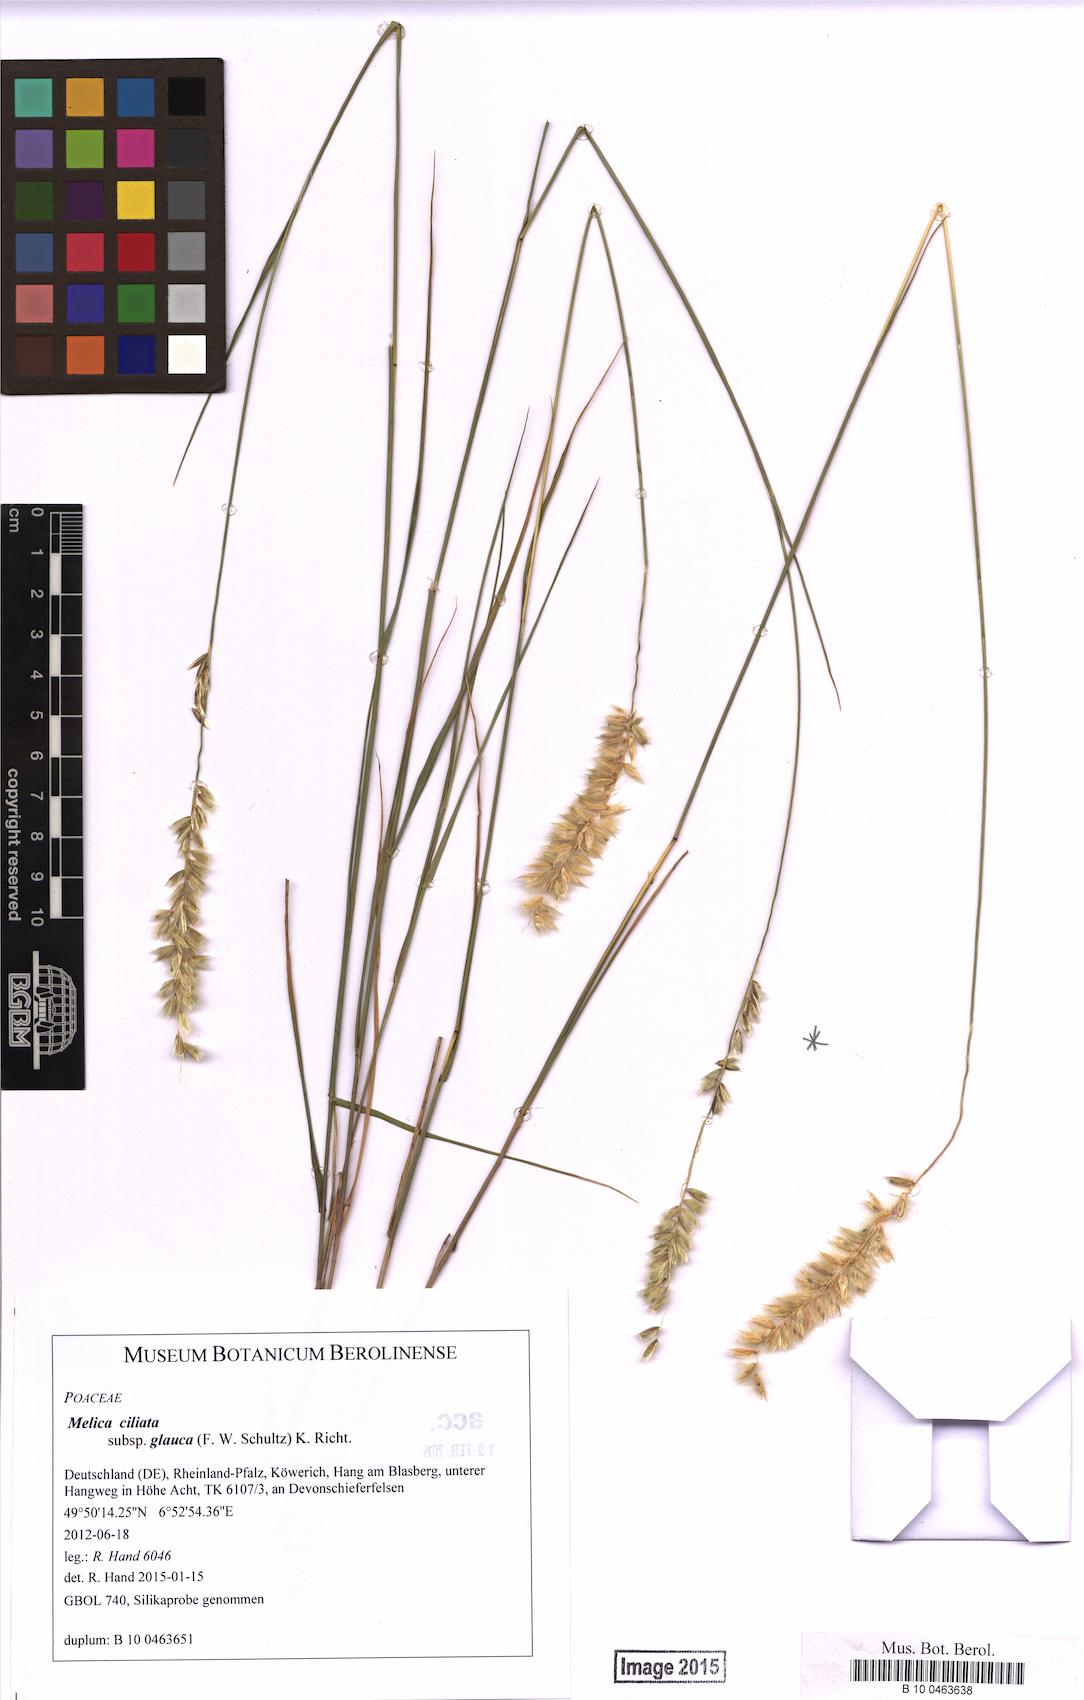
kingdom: Plantae
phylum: Tracheophyta
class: Liliopsida
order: Poales
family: Poaceae
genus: Melica
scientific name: Melica ciliata
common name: Hairy melicgrass
